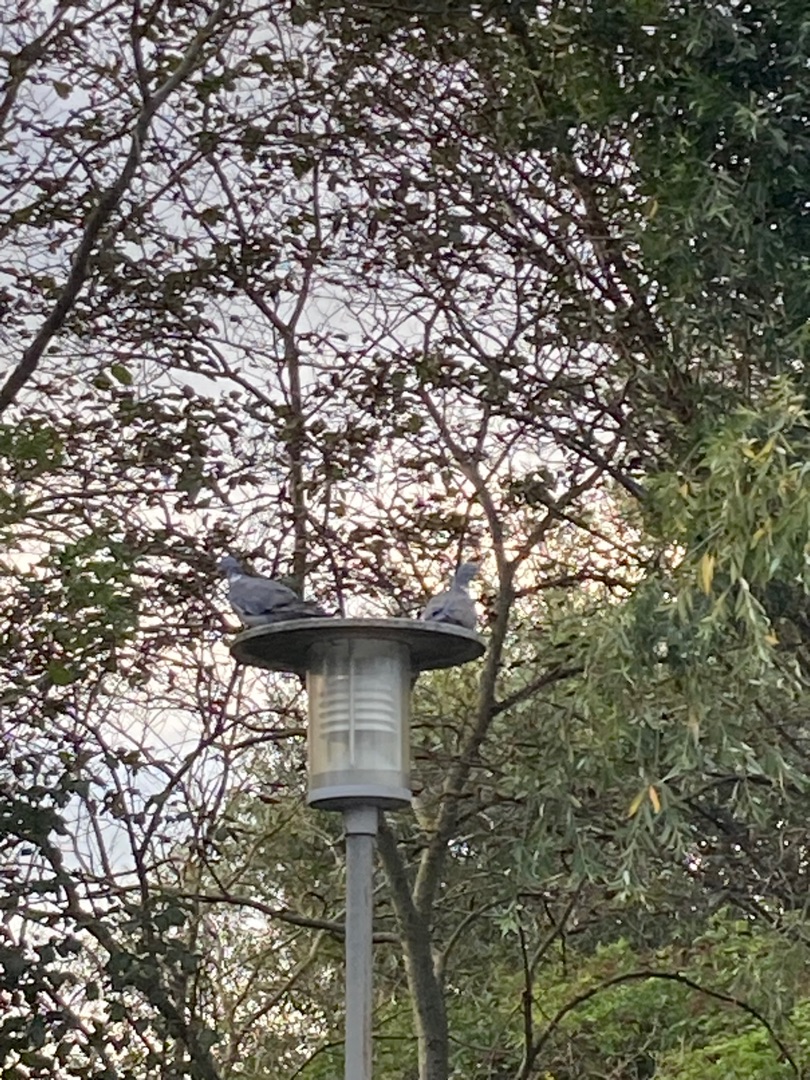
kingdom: Animalia
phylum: Chordata
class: Aves
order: Columbiformes
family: Columbidae
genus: Columba
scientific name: Columba palumbus
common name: Ringdue
